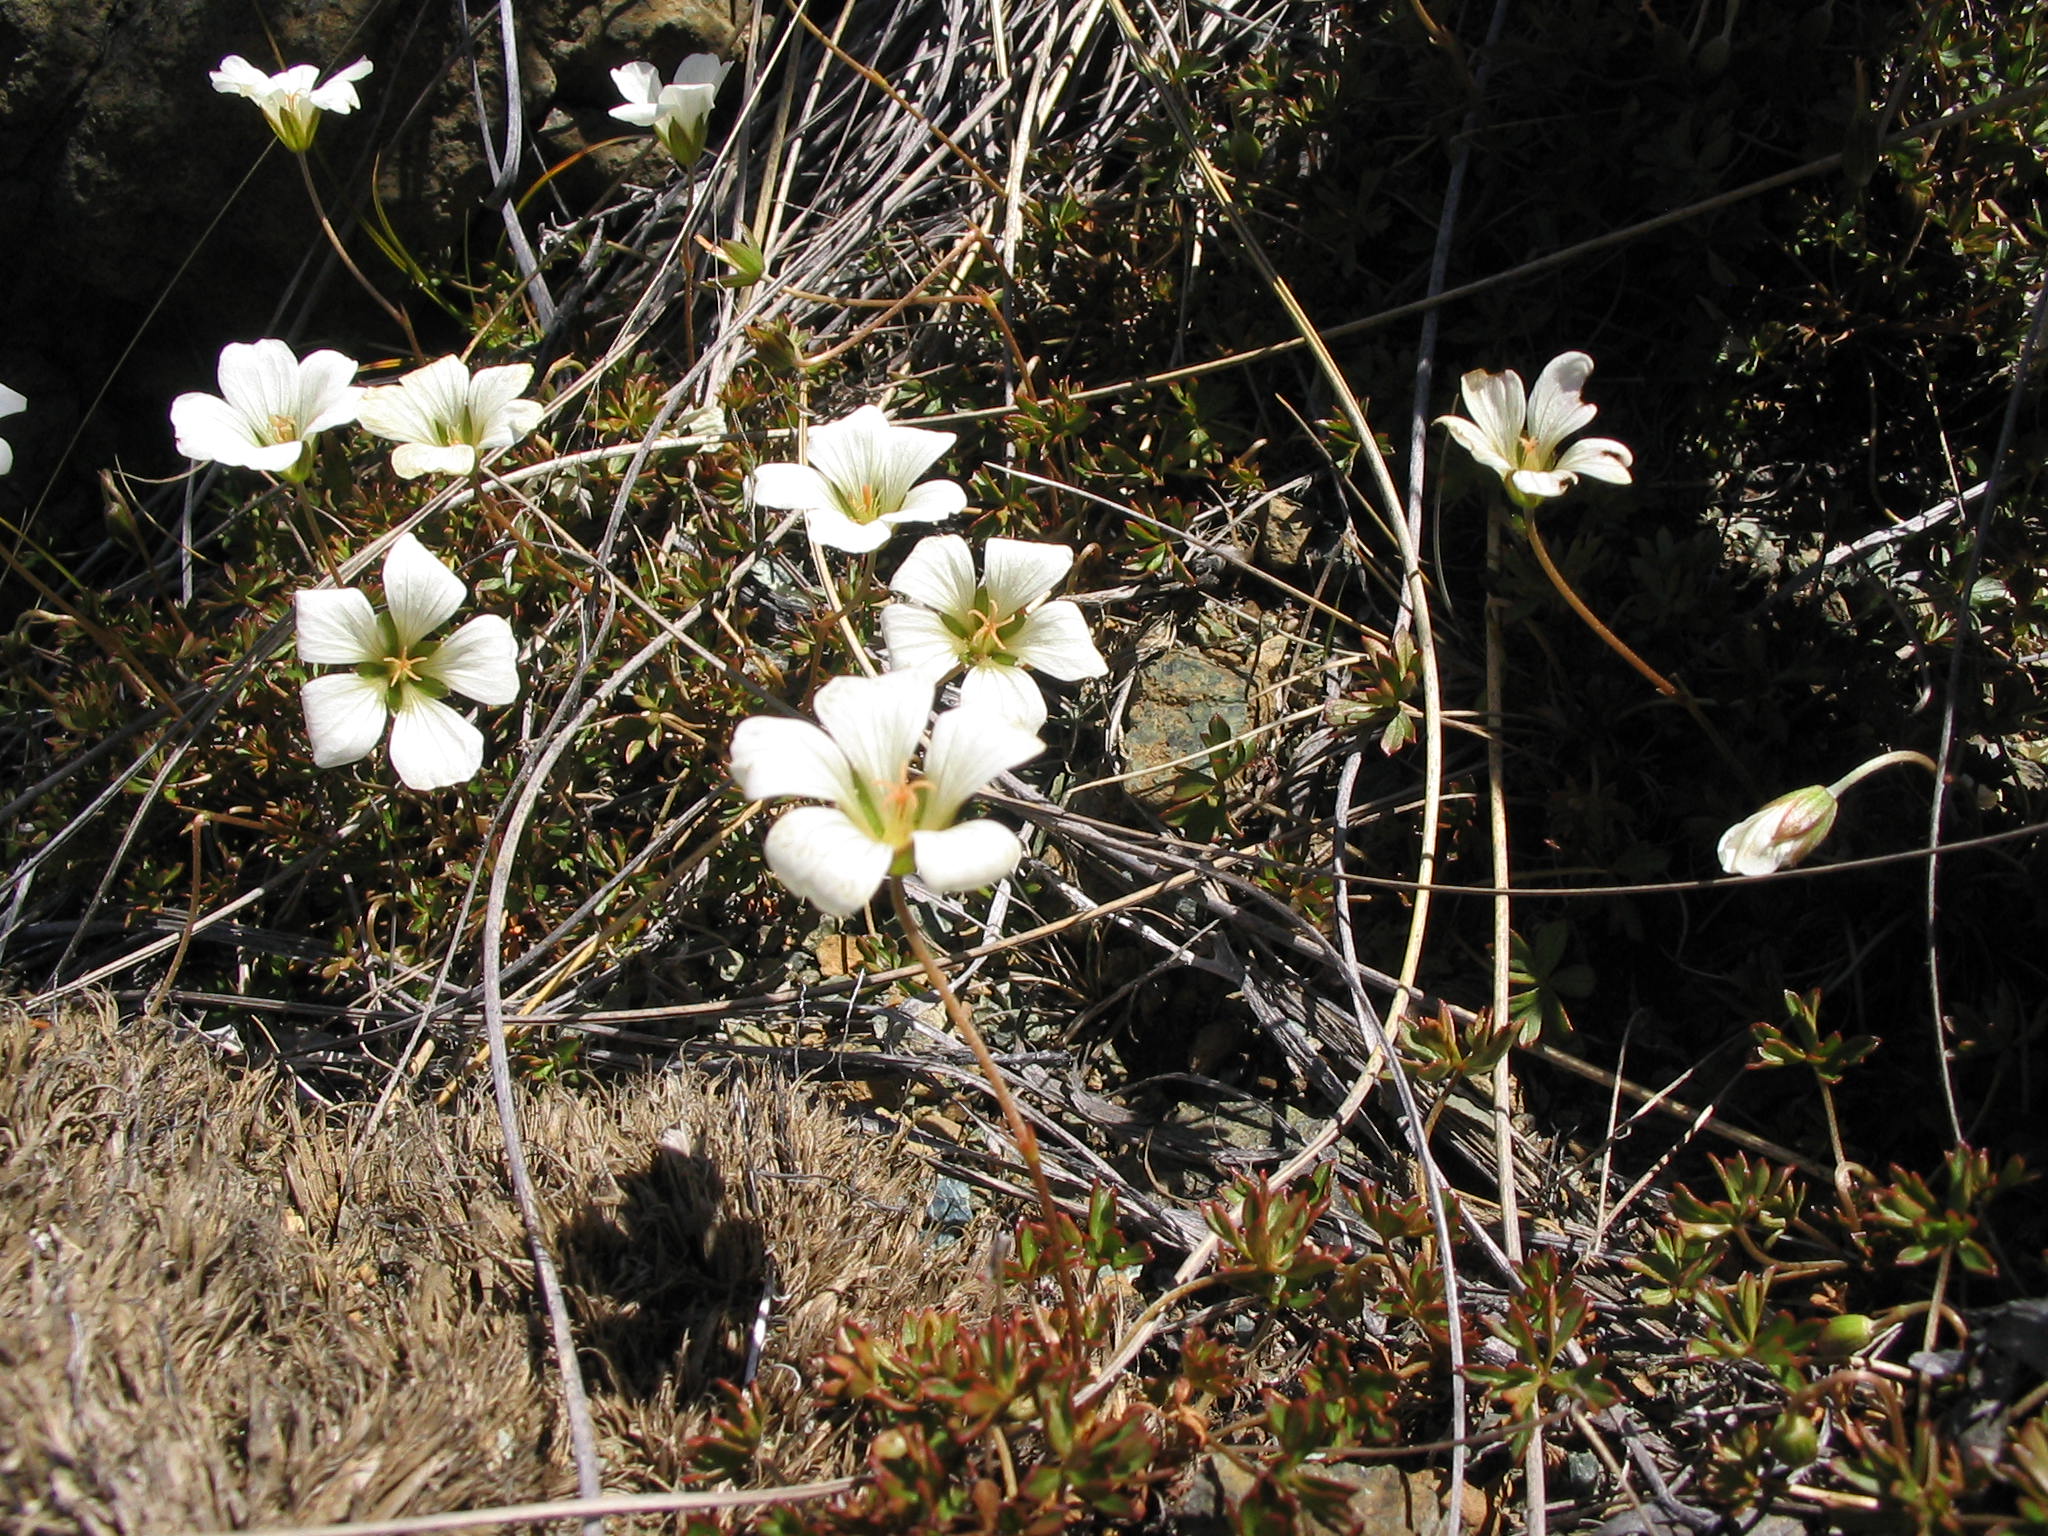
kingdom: Plantae
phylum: Tracheophyta
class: Magnoliopsida
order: Geraniales
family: Geraniaceae
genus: Geranium
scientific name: Geranium rubricum
